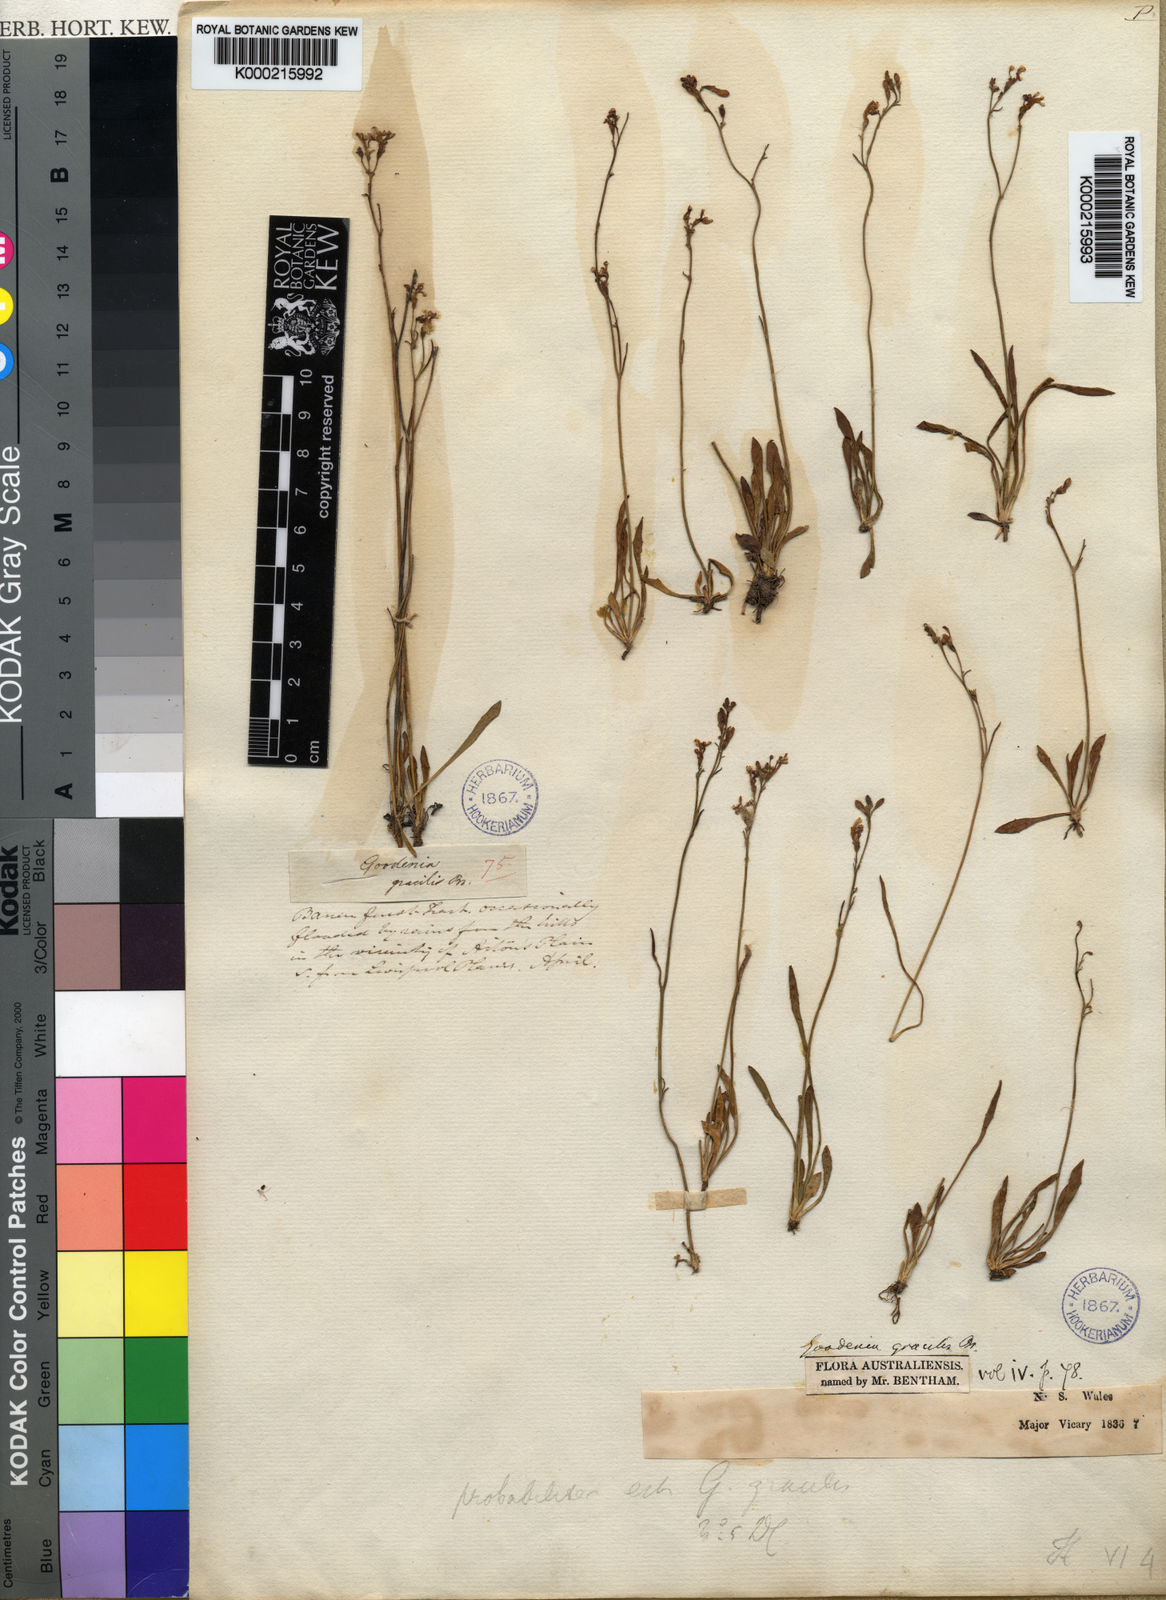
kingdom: Plantae
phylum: Tracheophyta
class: Magnoliopsida
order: Asterales
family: Goodeniaceae
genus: Goodenia
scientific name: Goodenia gracilis
